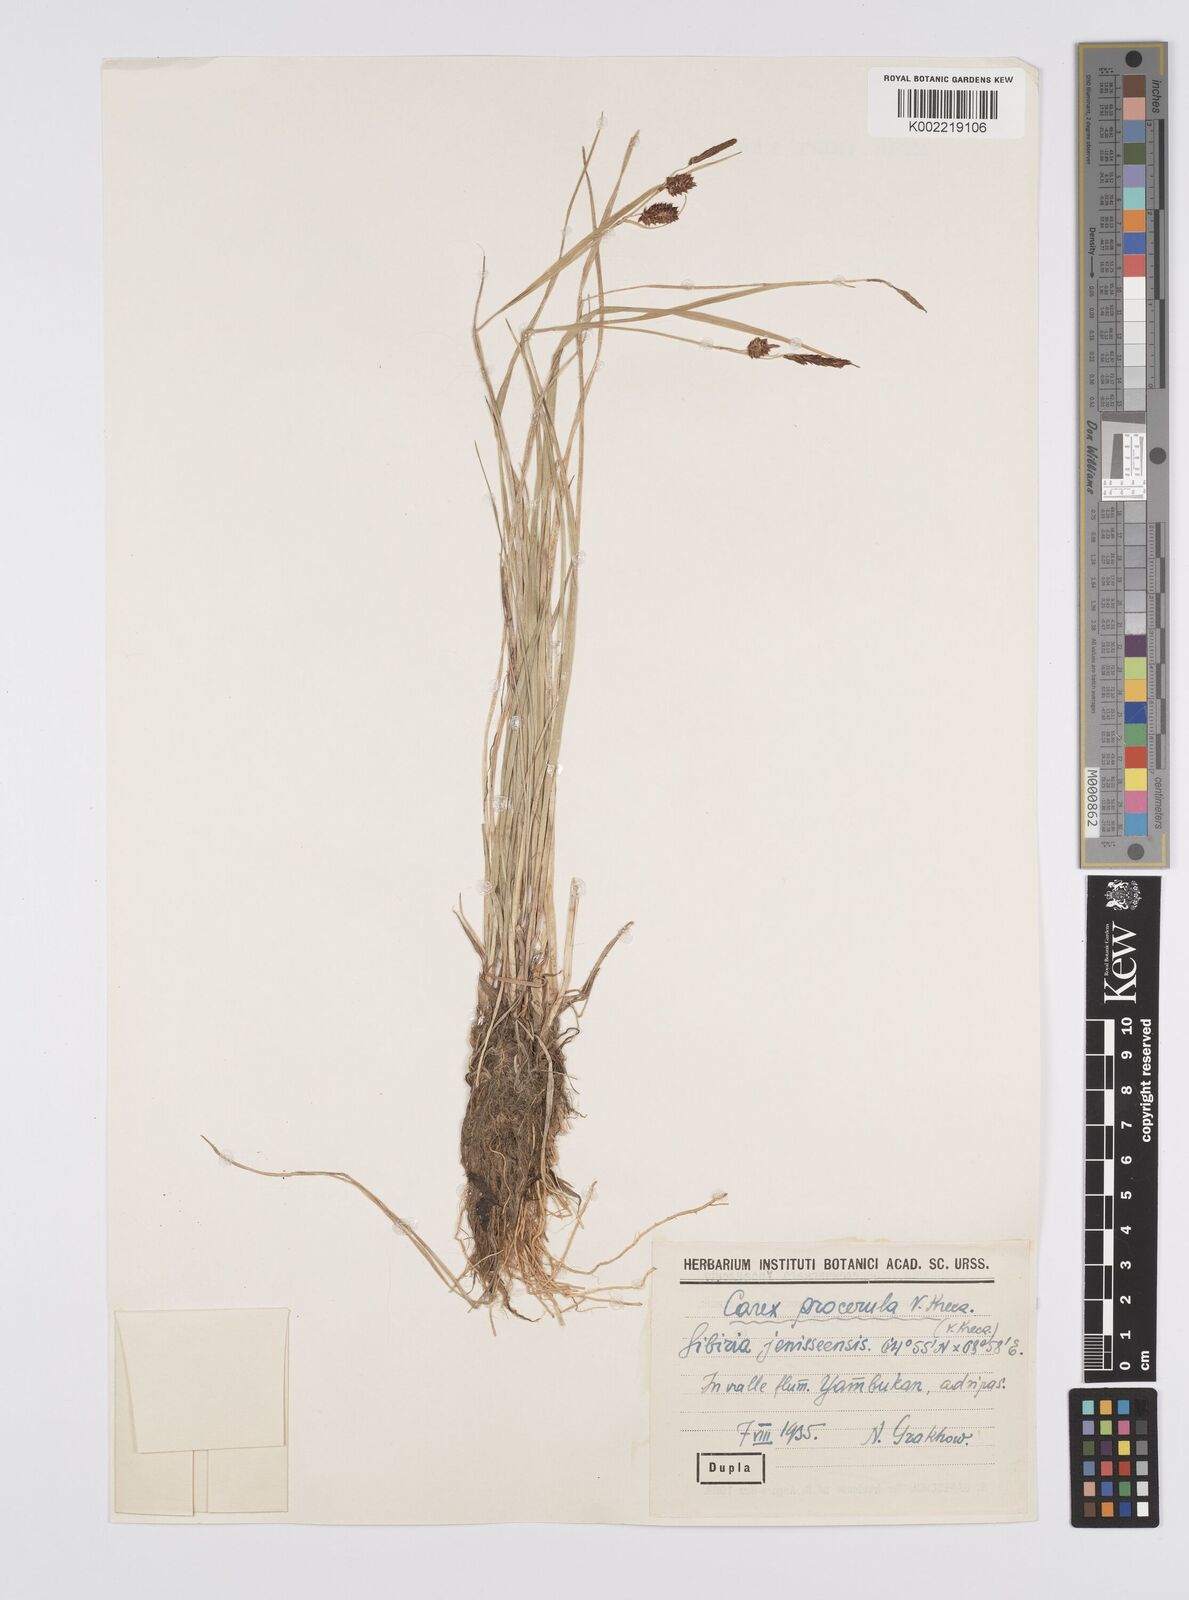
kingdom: Plantae
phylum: Tracheophyta
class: Liliopsida
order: Poales
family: Cyperaceae
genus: Carex
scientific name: Carex saxatilis
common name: Russet sedge
